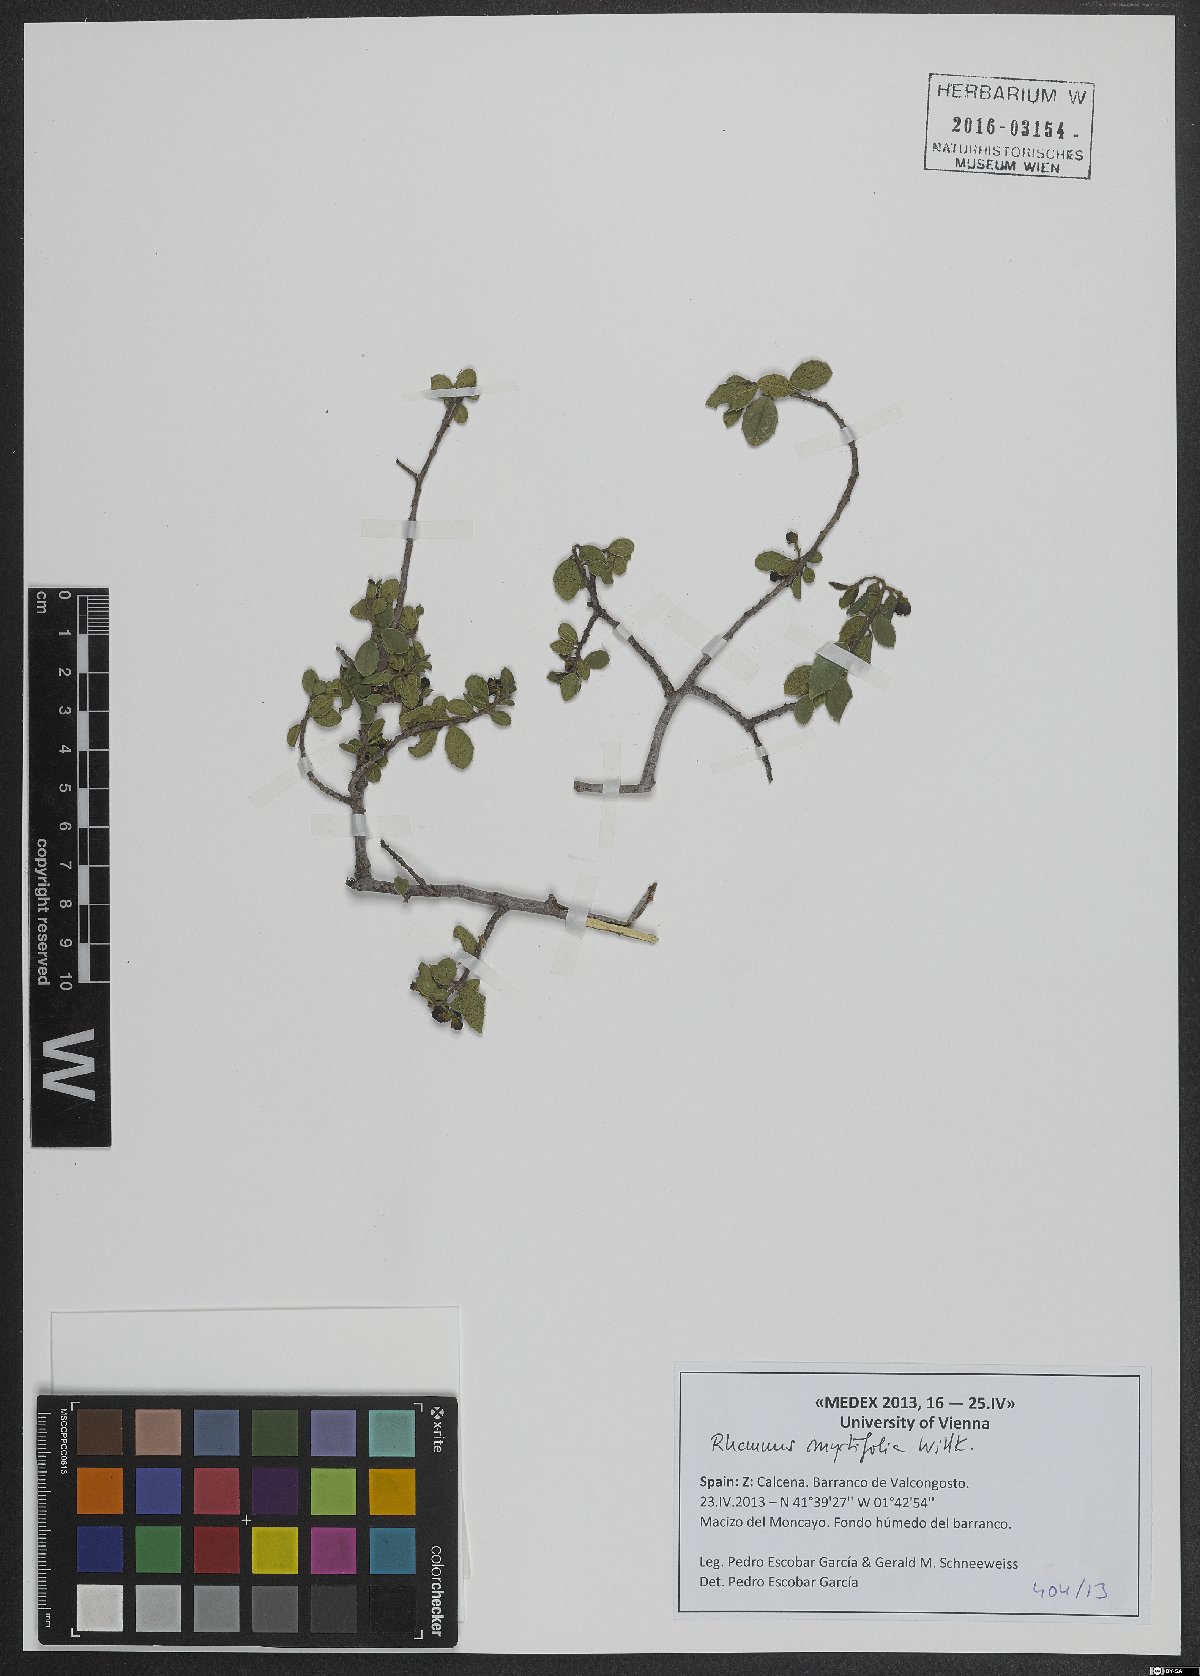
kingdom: Plantae
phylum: Tracheophyta
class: Magnoliopsida
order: Rosales
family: Rhamnaceae
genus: Rhamnus
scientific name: Rhamnus myrtifolia
